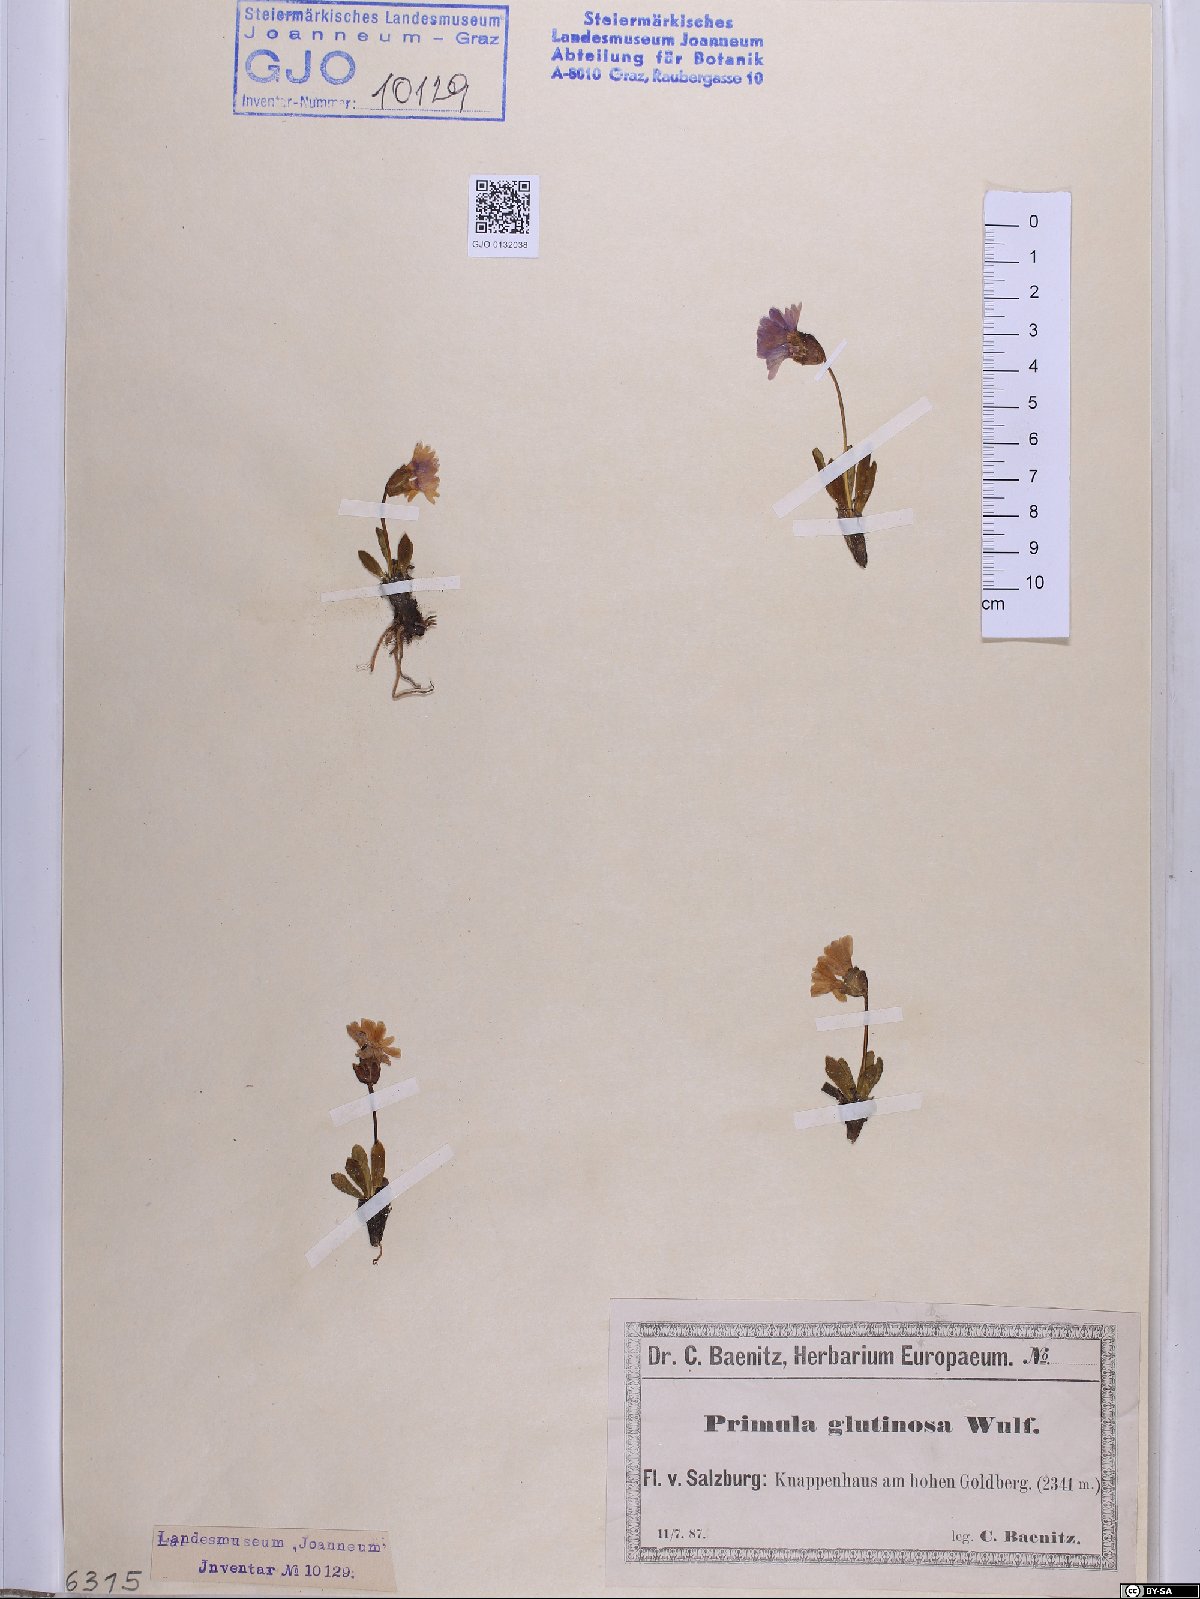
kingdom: Plantae
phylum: Tracheophyta
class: Magnoliopsida
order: Ericales
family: Primulaceae
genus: Primula
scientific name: Primula glutinosa
